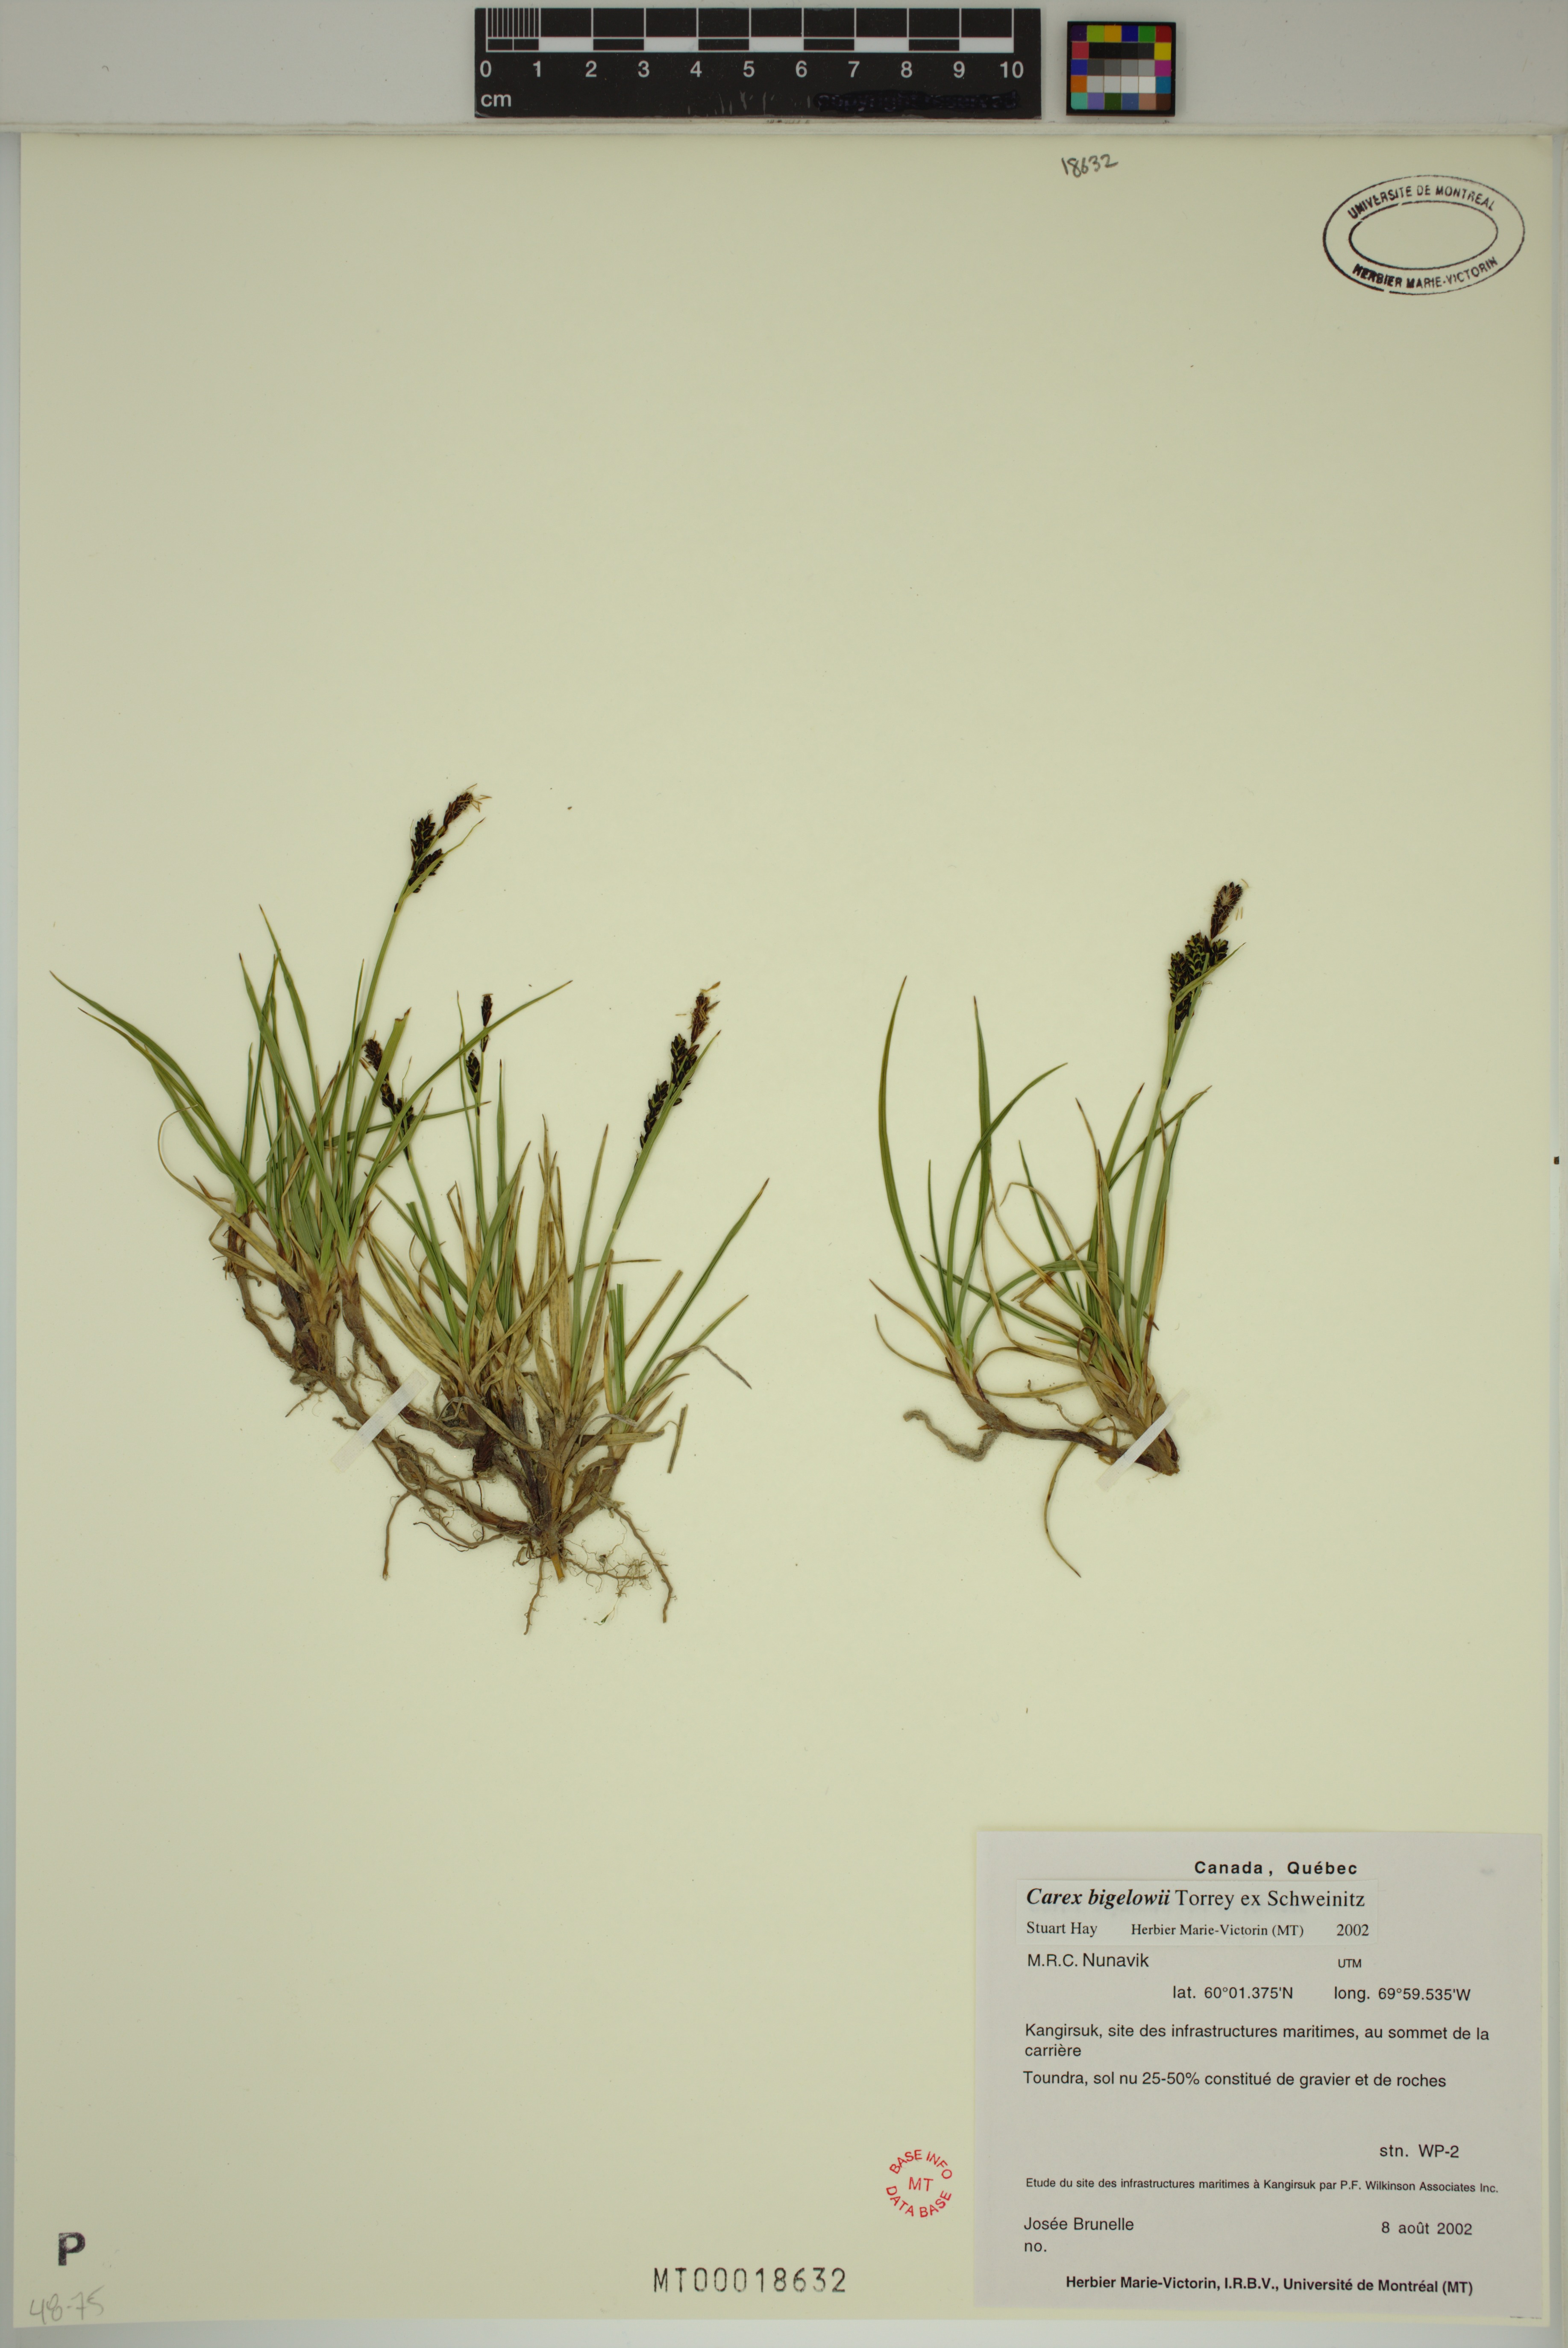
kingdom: Plantae
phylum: Tracheophyta
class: Liliopsida
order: Poales
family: Cyperaceae
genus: Carex
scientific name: Carex bigelowii
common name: Stiff sedge
